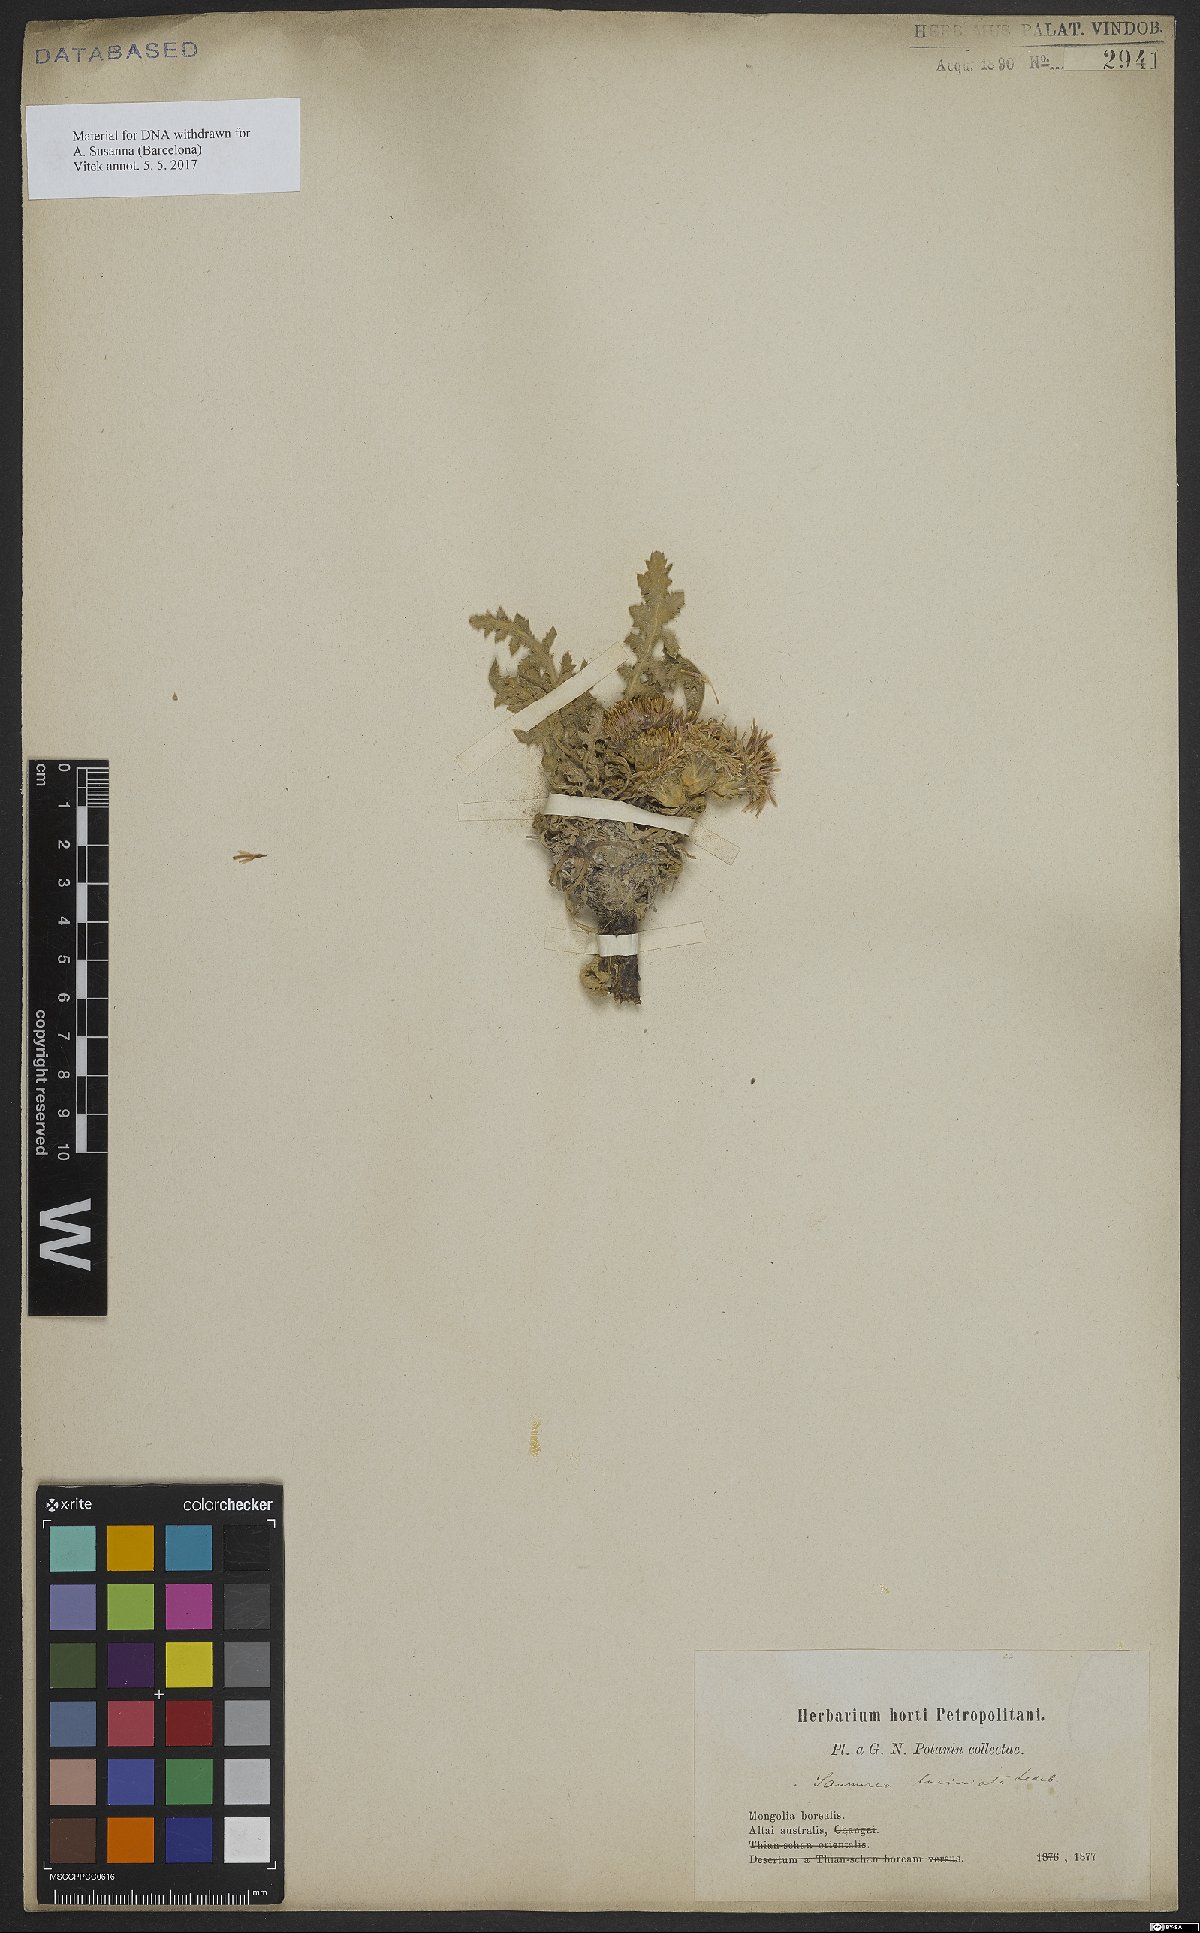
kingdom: Plantae
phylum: Tracheophyta
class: Magnoliopsida
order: Asterales
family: Asteraceae
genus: Saussurea
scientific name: Saussurea laciniata
